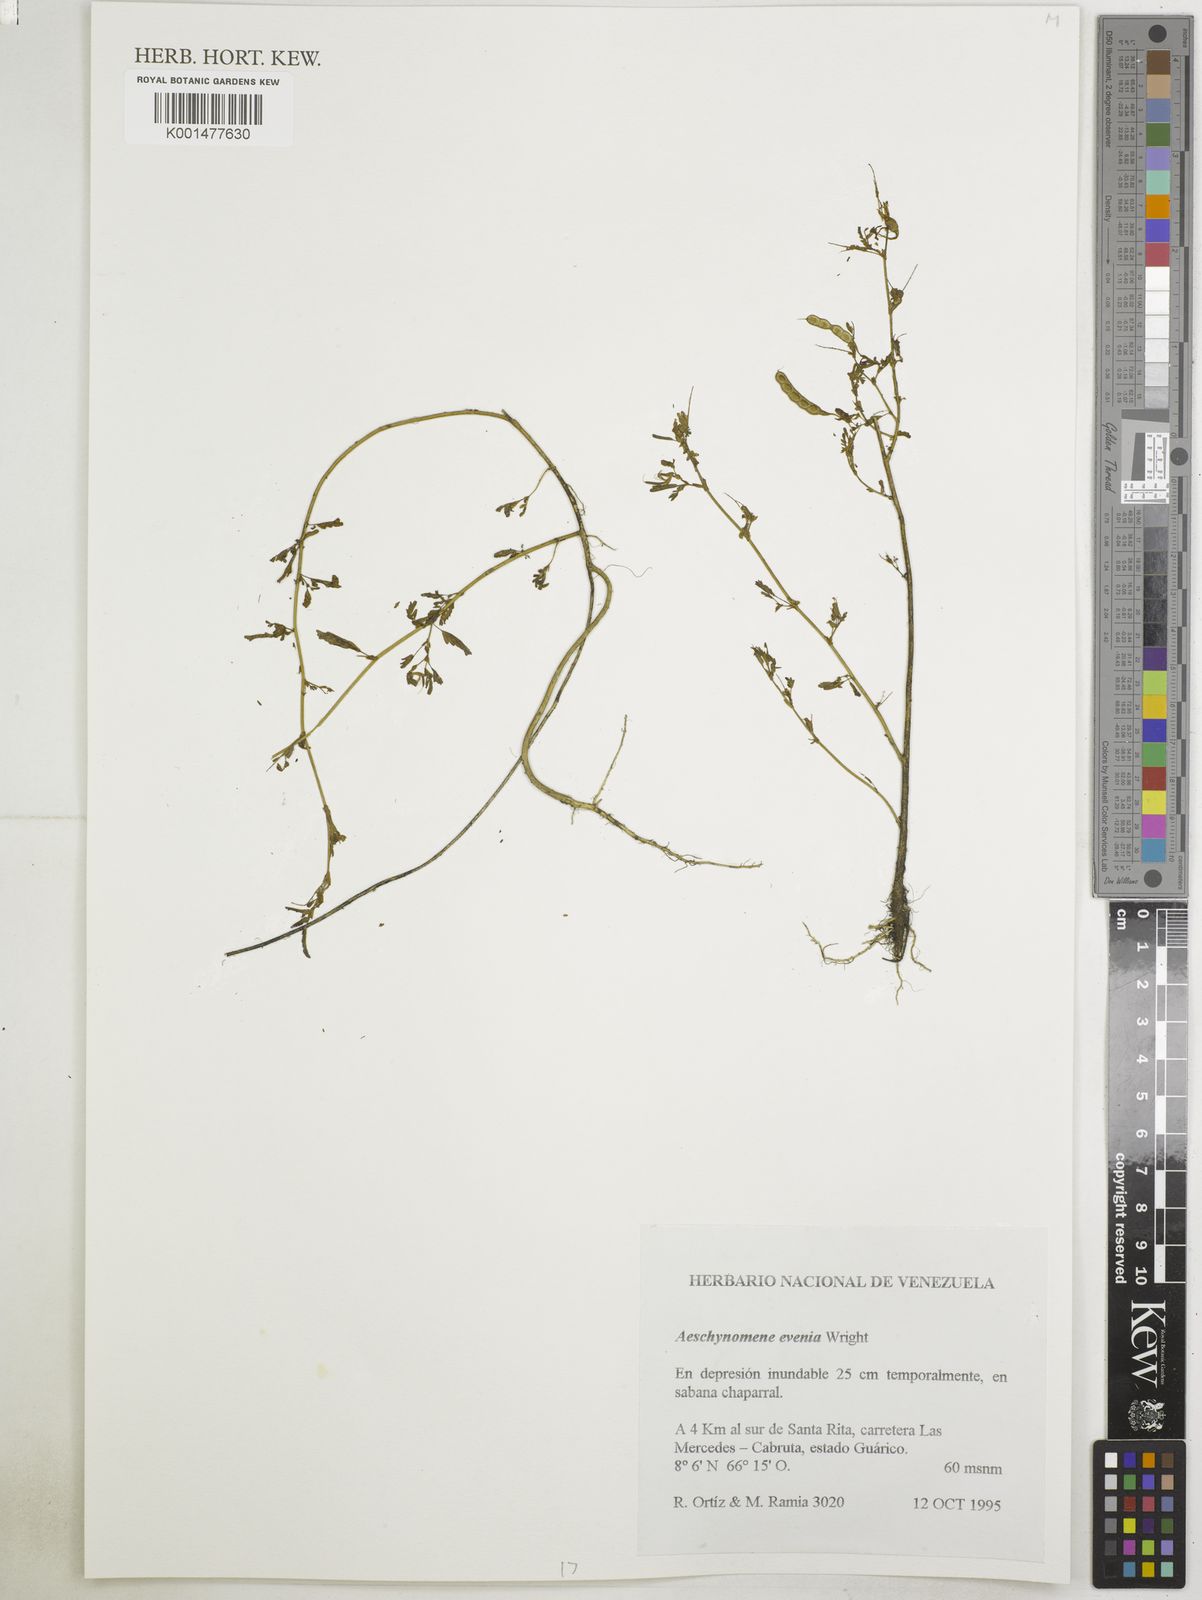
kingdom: Plantae
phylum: Tracheophyta
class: Magnoliopsida
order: Fabales
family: Fabaceae
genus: Aeschynomene
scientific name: Aeschynomene evenia
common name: Shrubby jointvetch
